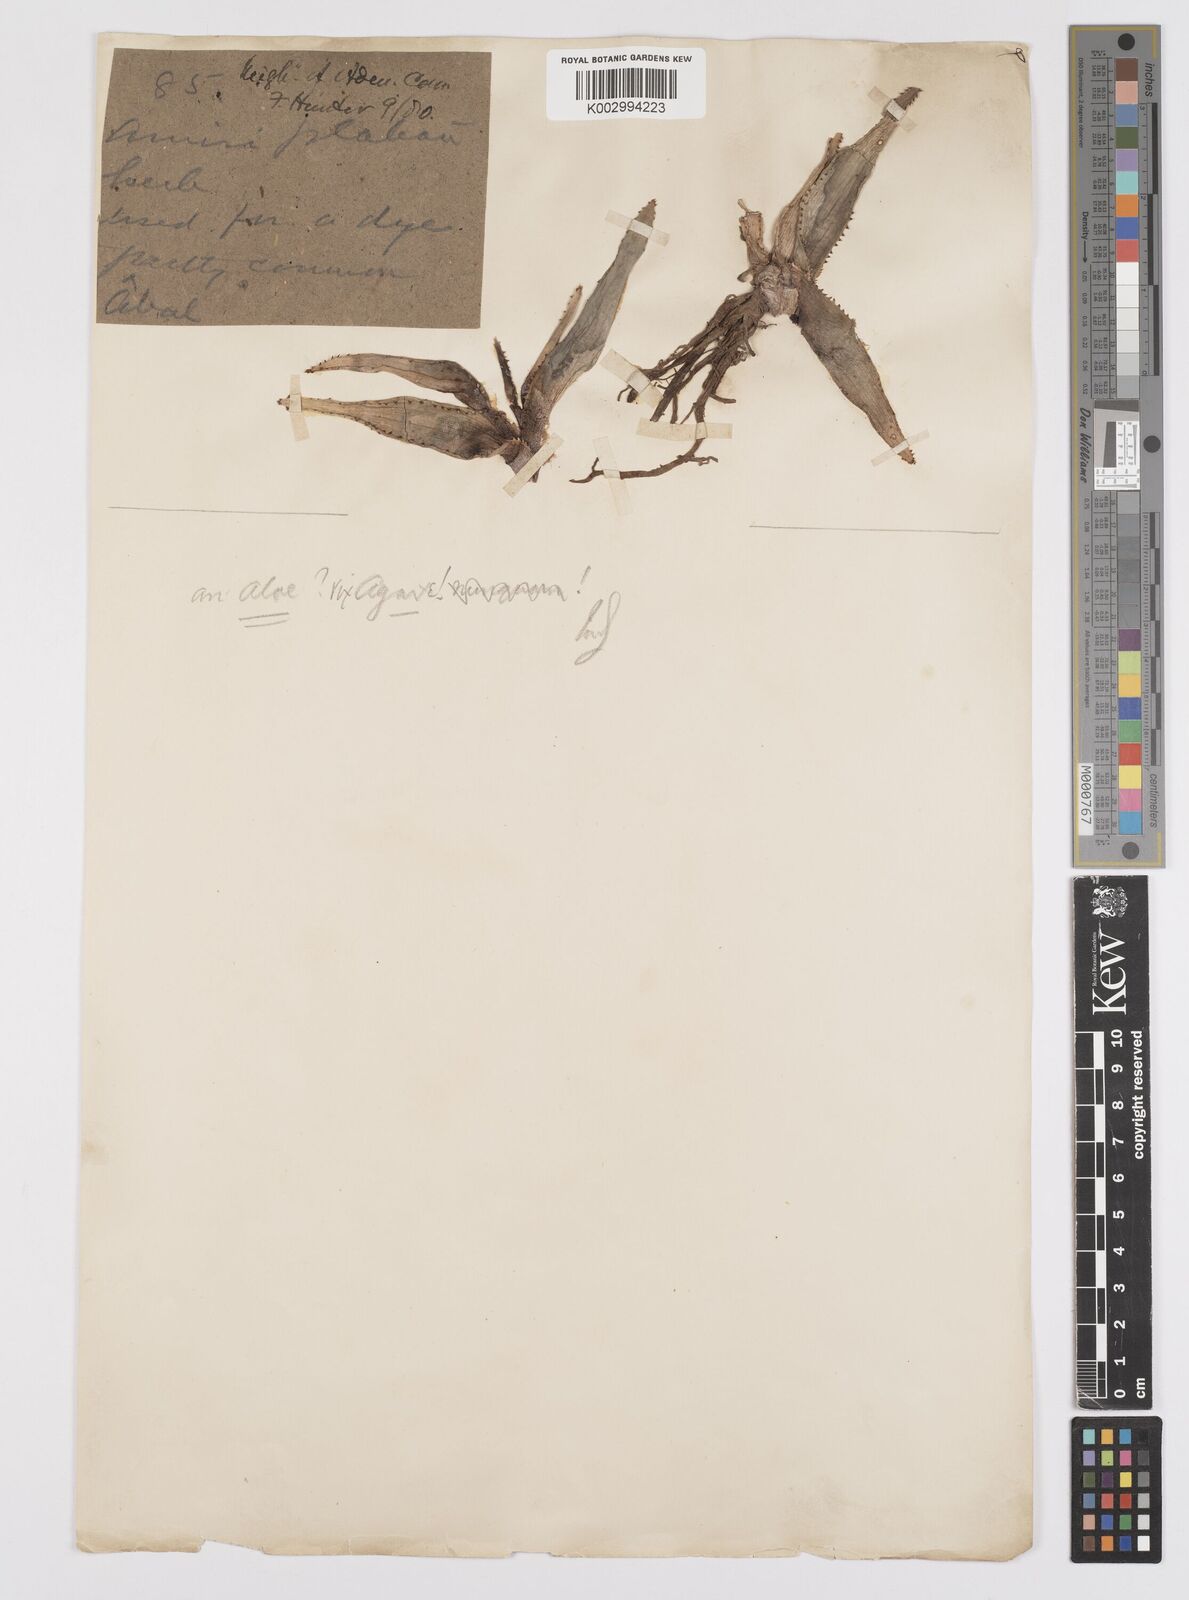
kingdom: Plantae
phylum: Tracheophyta
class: Liliopsida
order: Asparagales
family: Asphodelaceae
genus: Aloe
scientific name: Aloe
